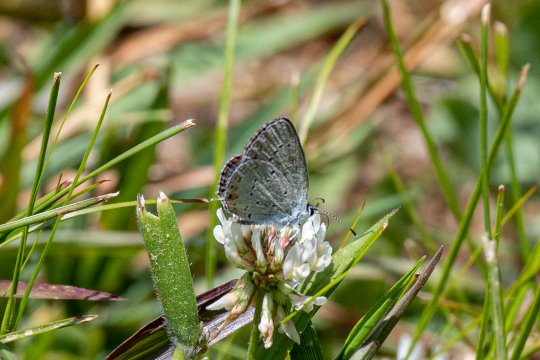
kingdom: Animalia
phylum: Arthropoda
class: Insecta
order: Lepidoptera
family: Lycaenidae
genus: Elkalyce
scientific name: Elkalyce comyntas
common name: Eastern Tailed-Blue
